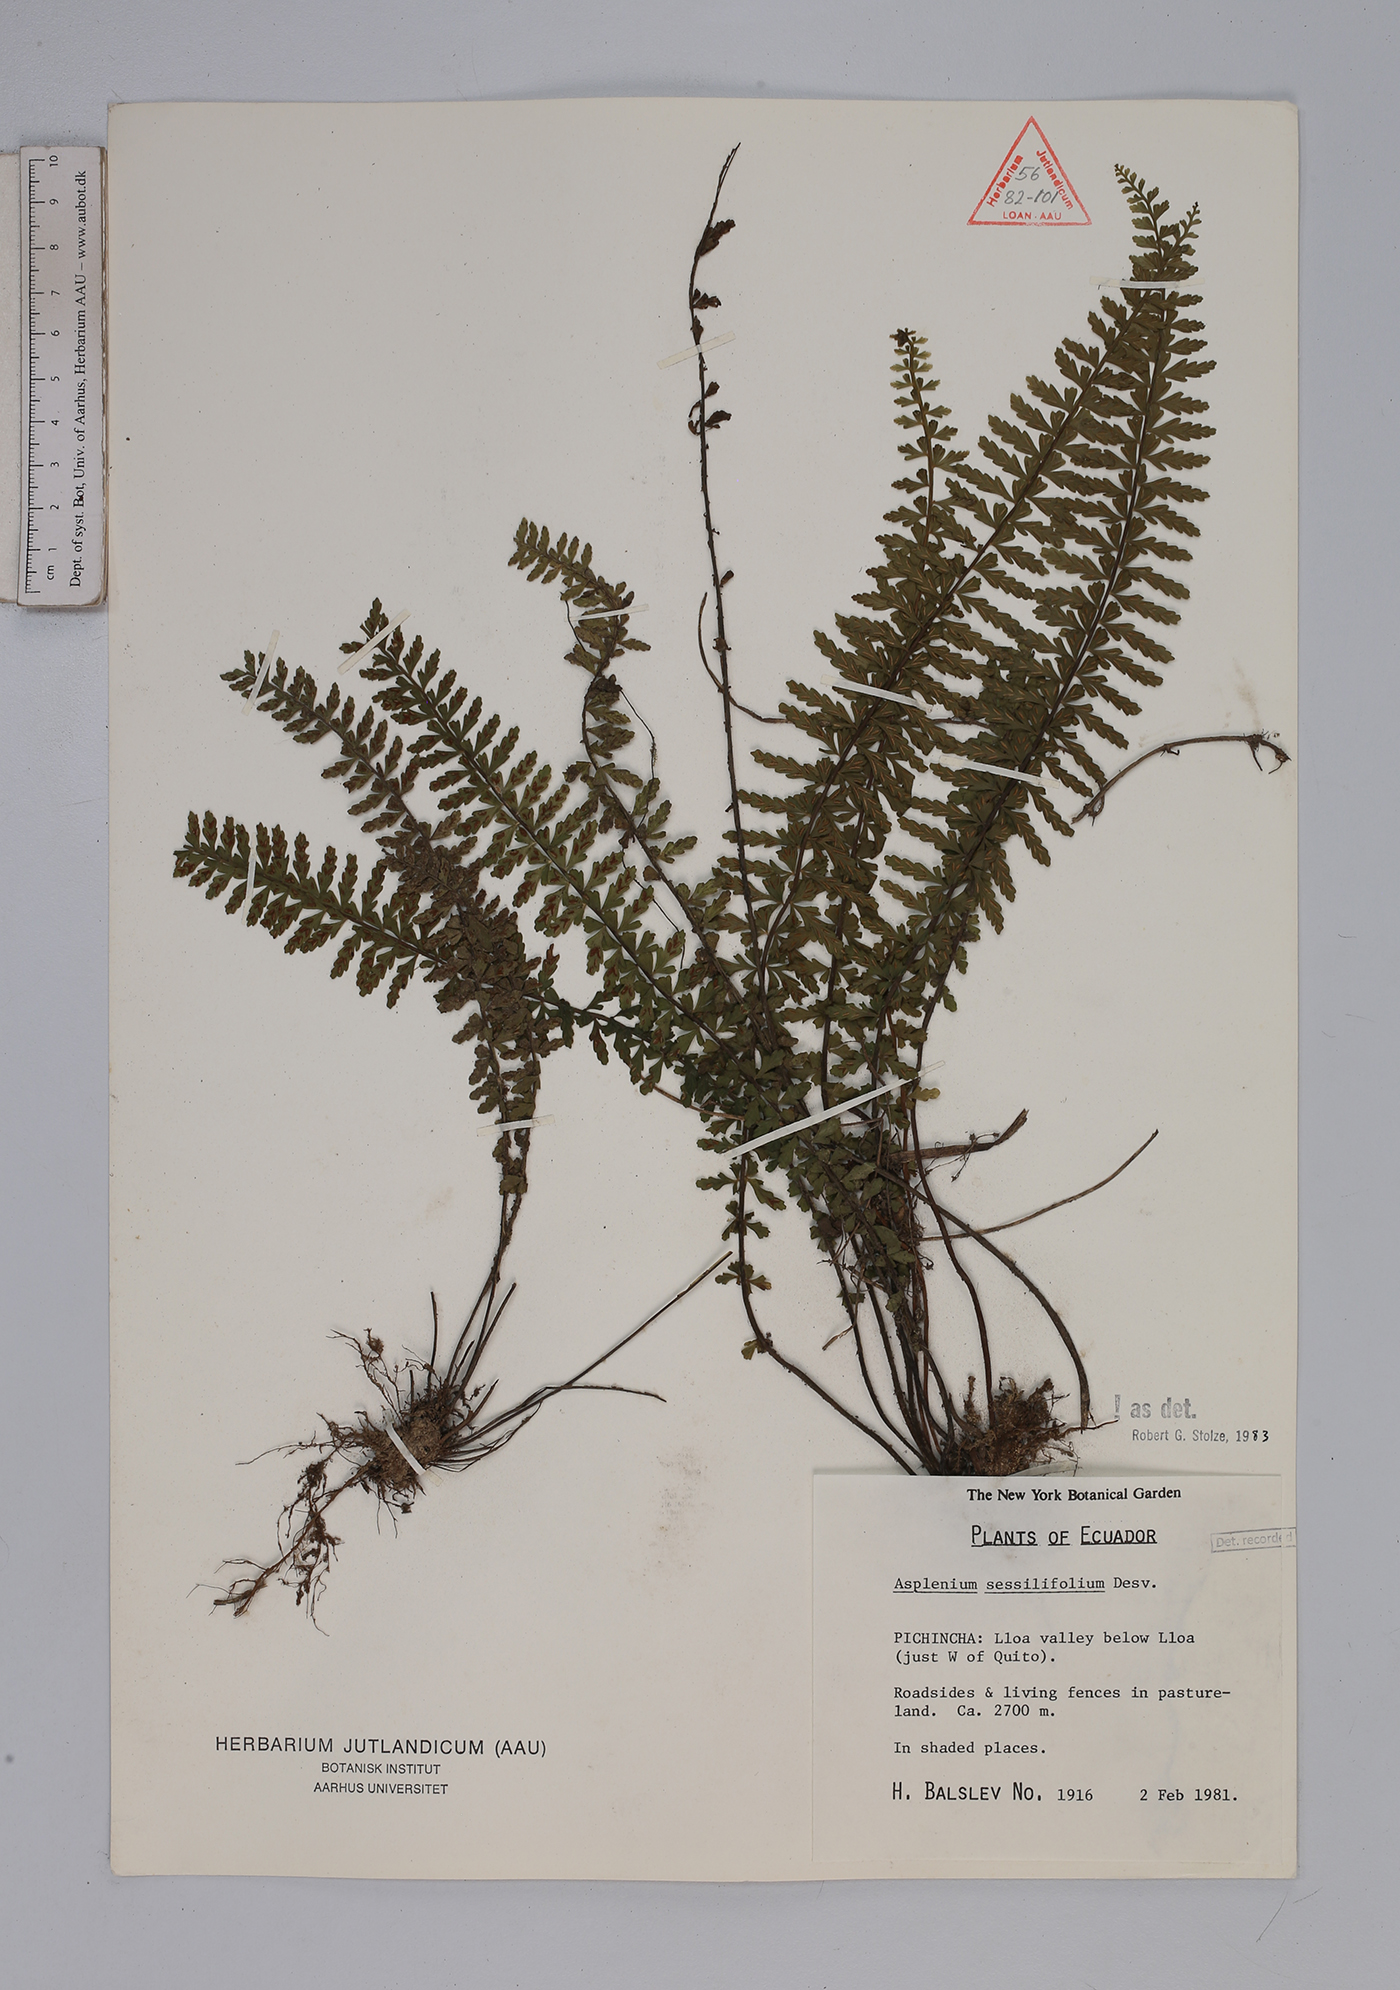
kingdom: Plantae
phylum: Tracheophyta
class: Polypodiopsida
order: Polypodiales
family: Aspleniaceae
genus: Asplenium
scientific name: Asplenium sessilifolium
